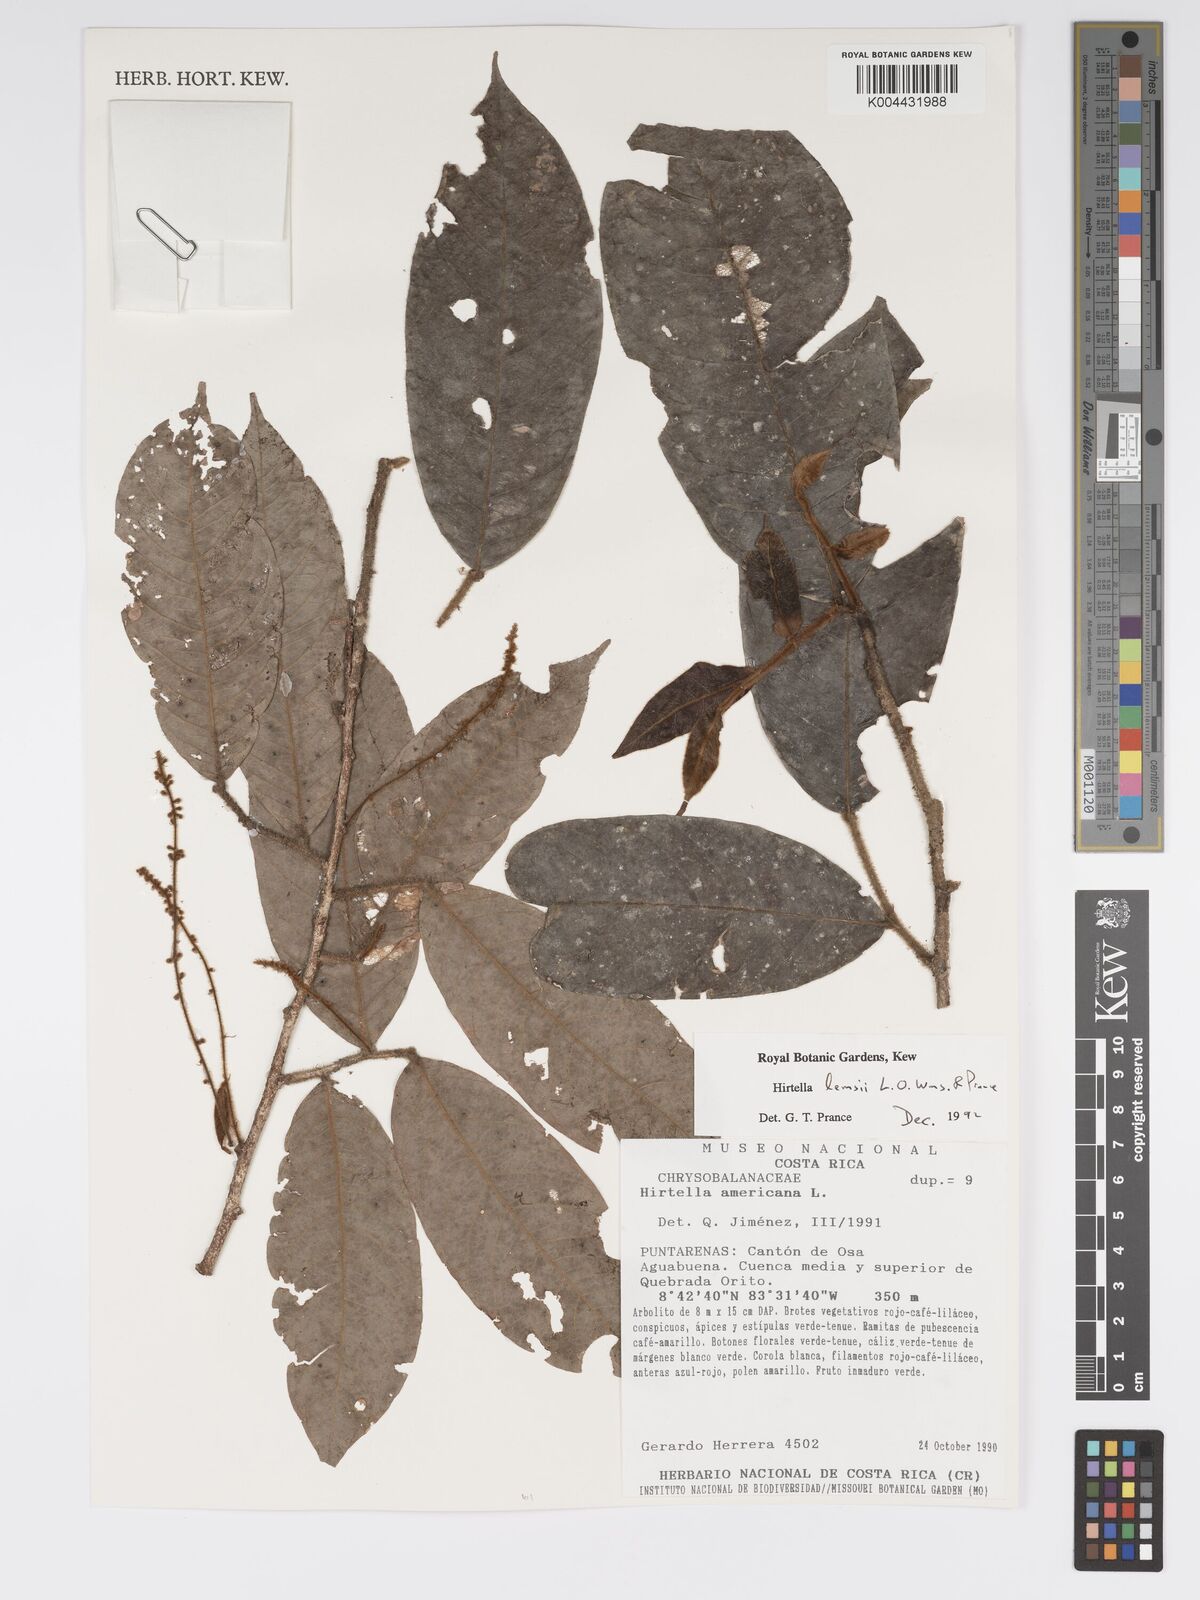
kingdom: Plantae
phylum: Tracheophyta
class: Magnoliopsida
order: Malpighiales
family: Chrysobalanaceae
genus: Hirtella
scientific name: Hirtella lemsii
